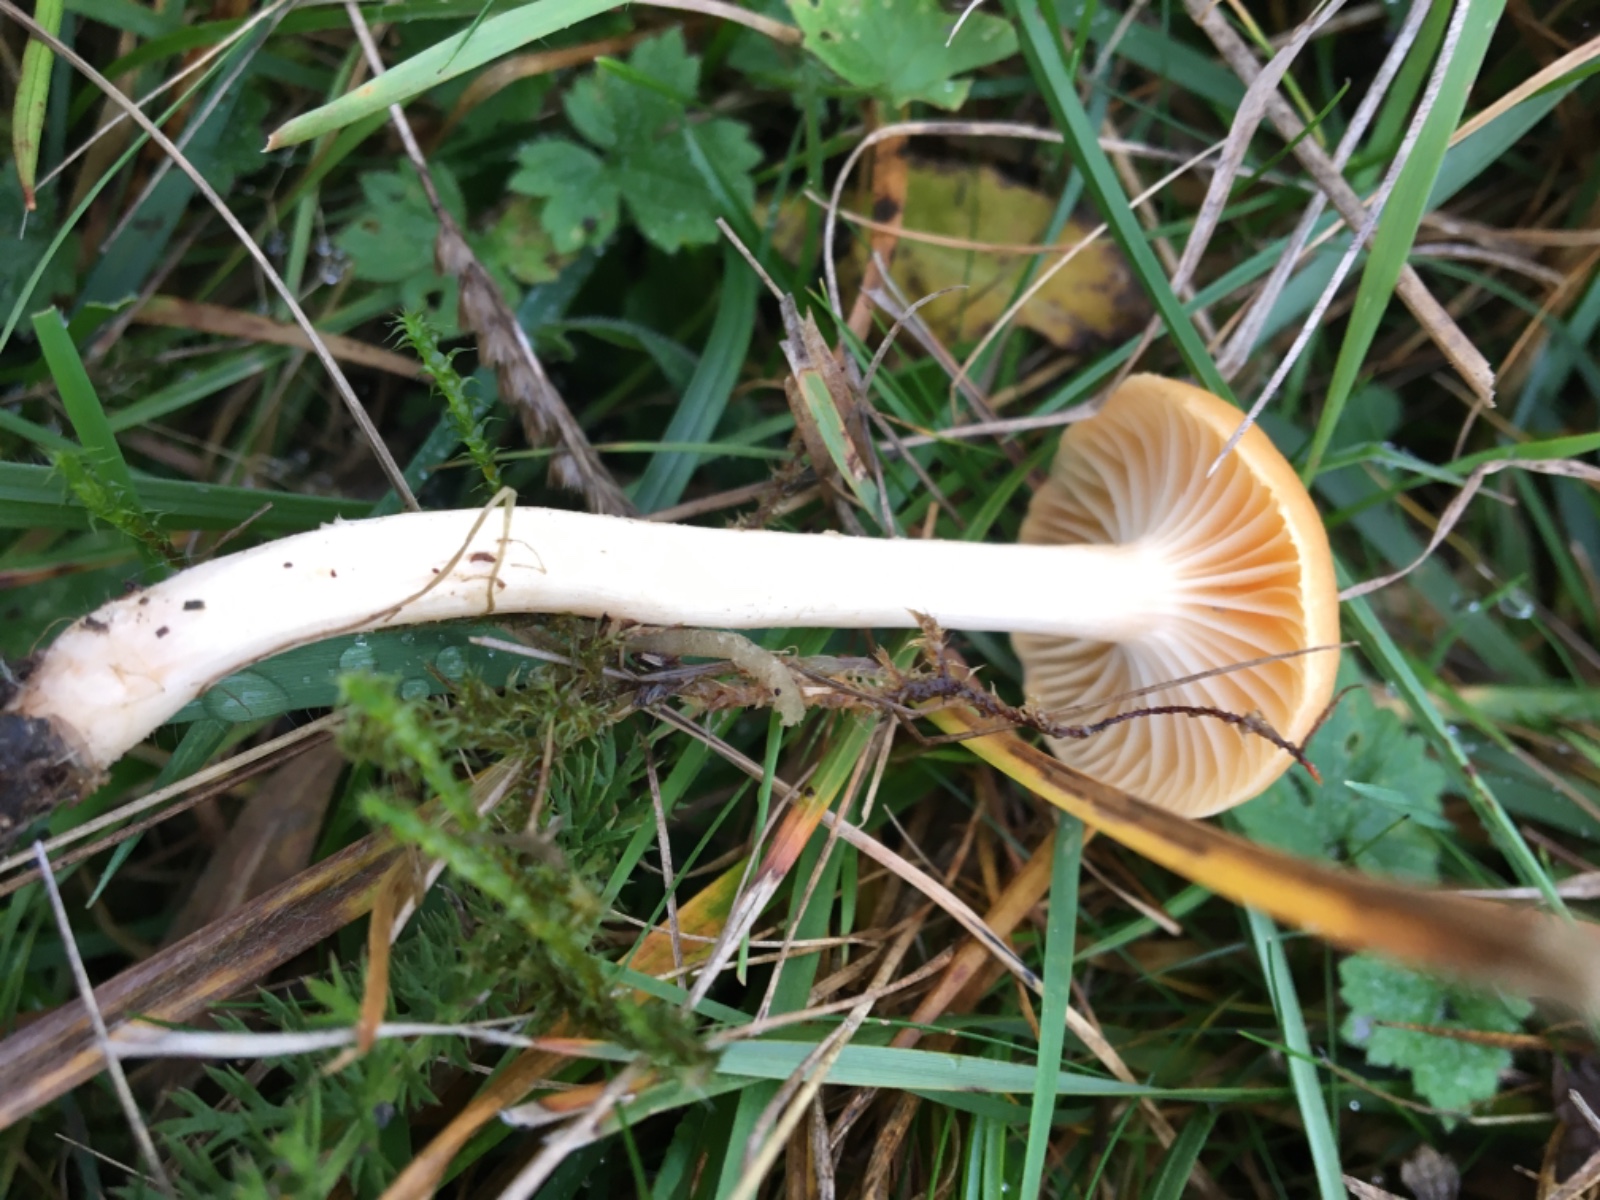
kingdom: Fungi
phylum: Basidiomycota
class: Agaricomycetes
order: Agaricales
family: Hygrophoraceae
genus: Cuphophyllus
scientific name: Cuphophyllus pratensis
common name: eng-vokshat
